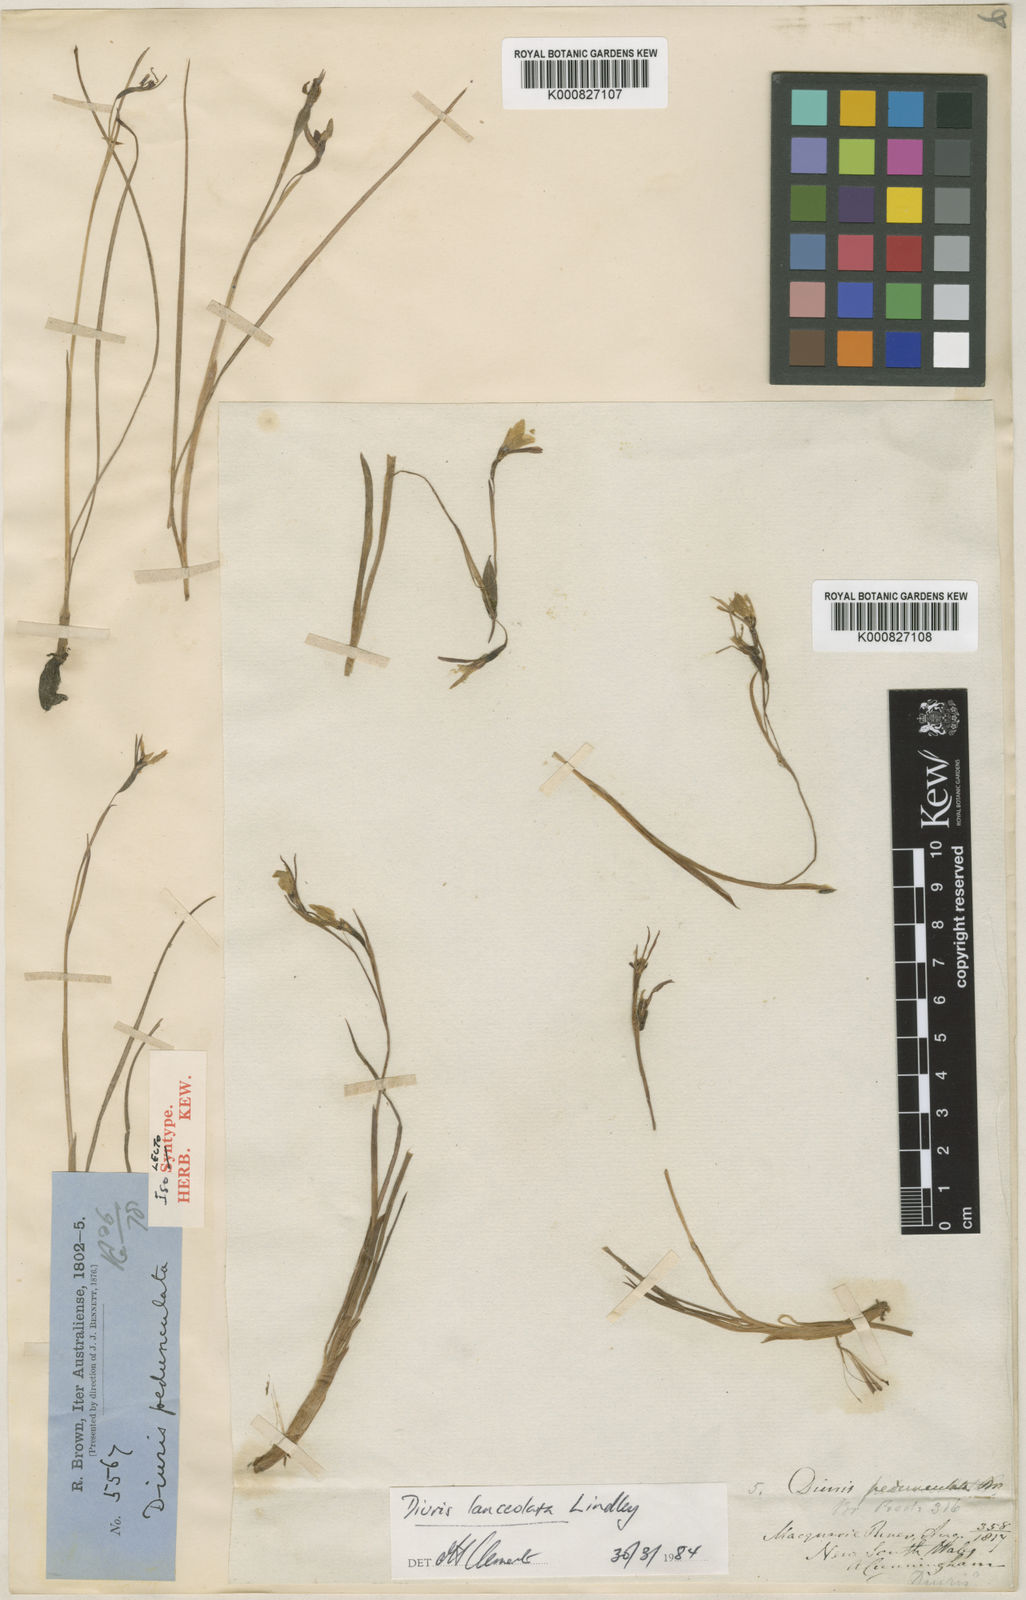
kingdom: Plantae
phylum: Tracheophyta
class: Liliopsida
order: Asparagales
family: Orchidaceae
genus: Diuris
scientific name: Diuris pedunculata
